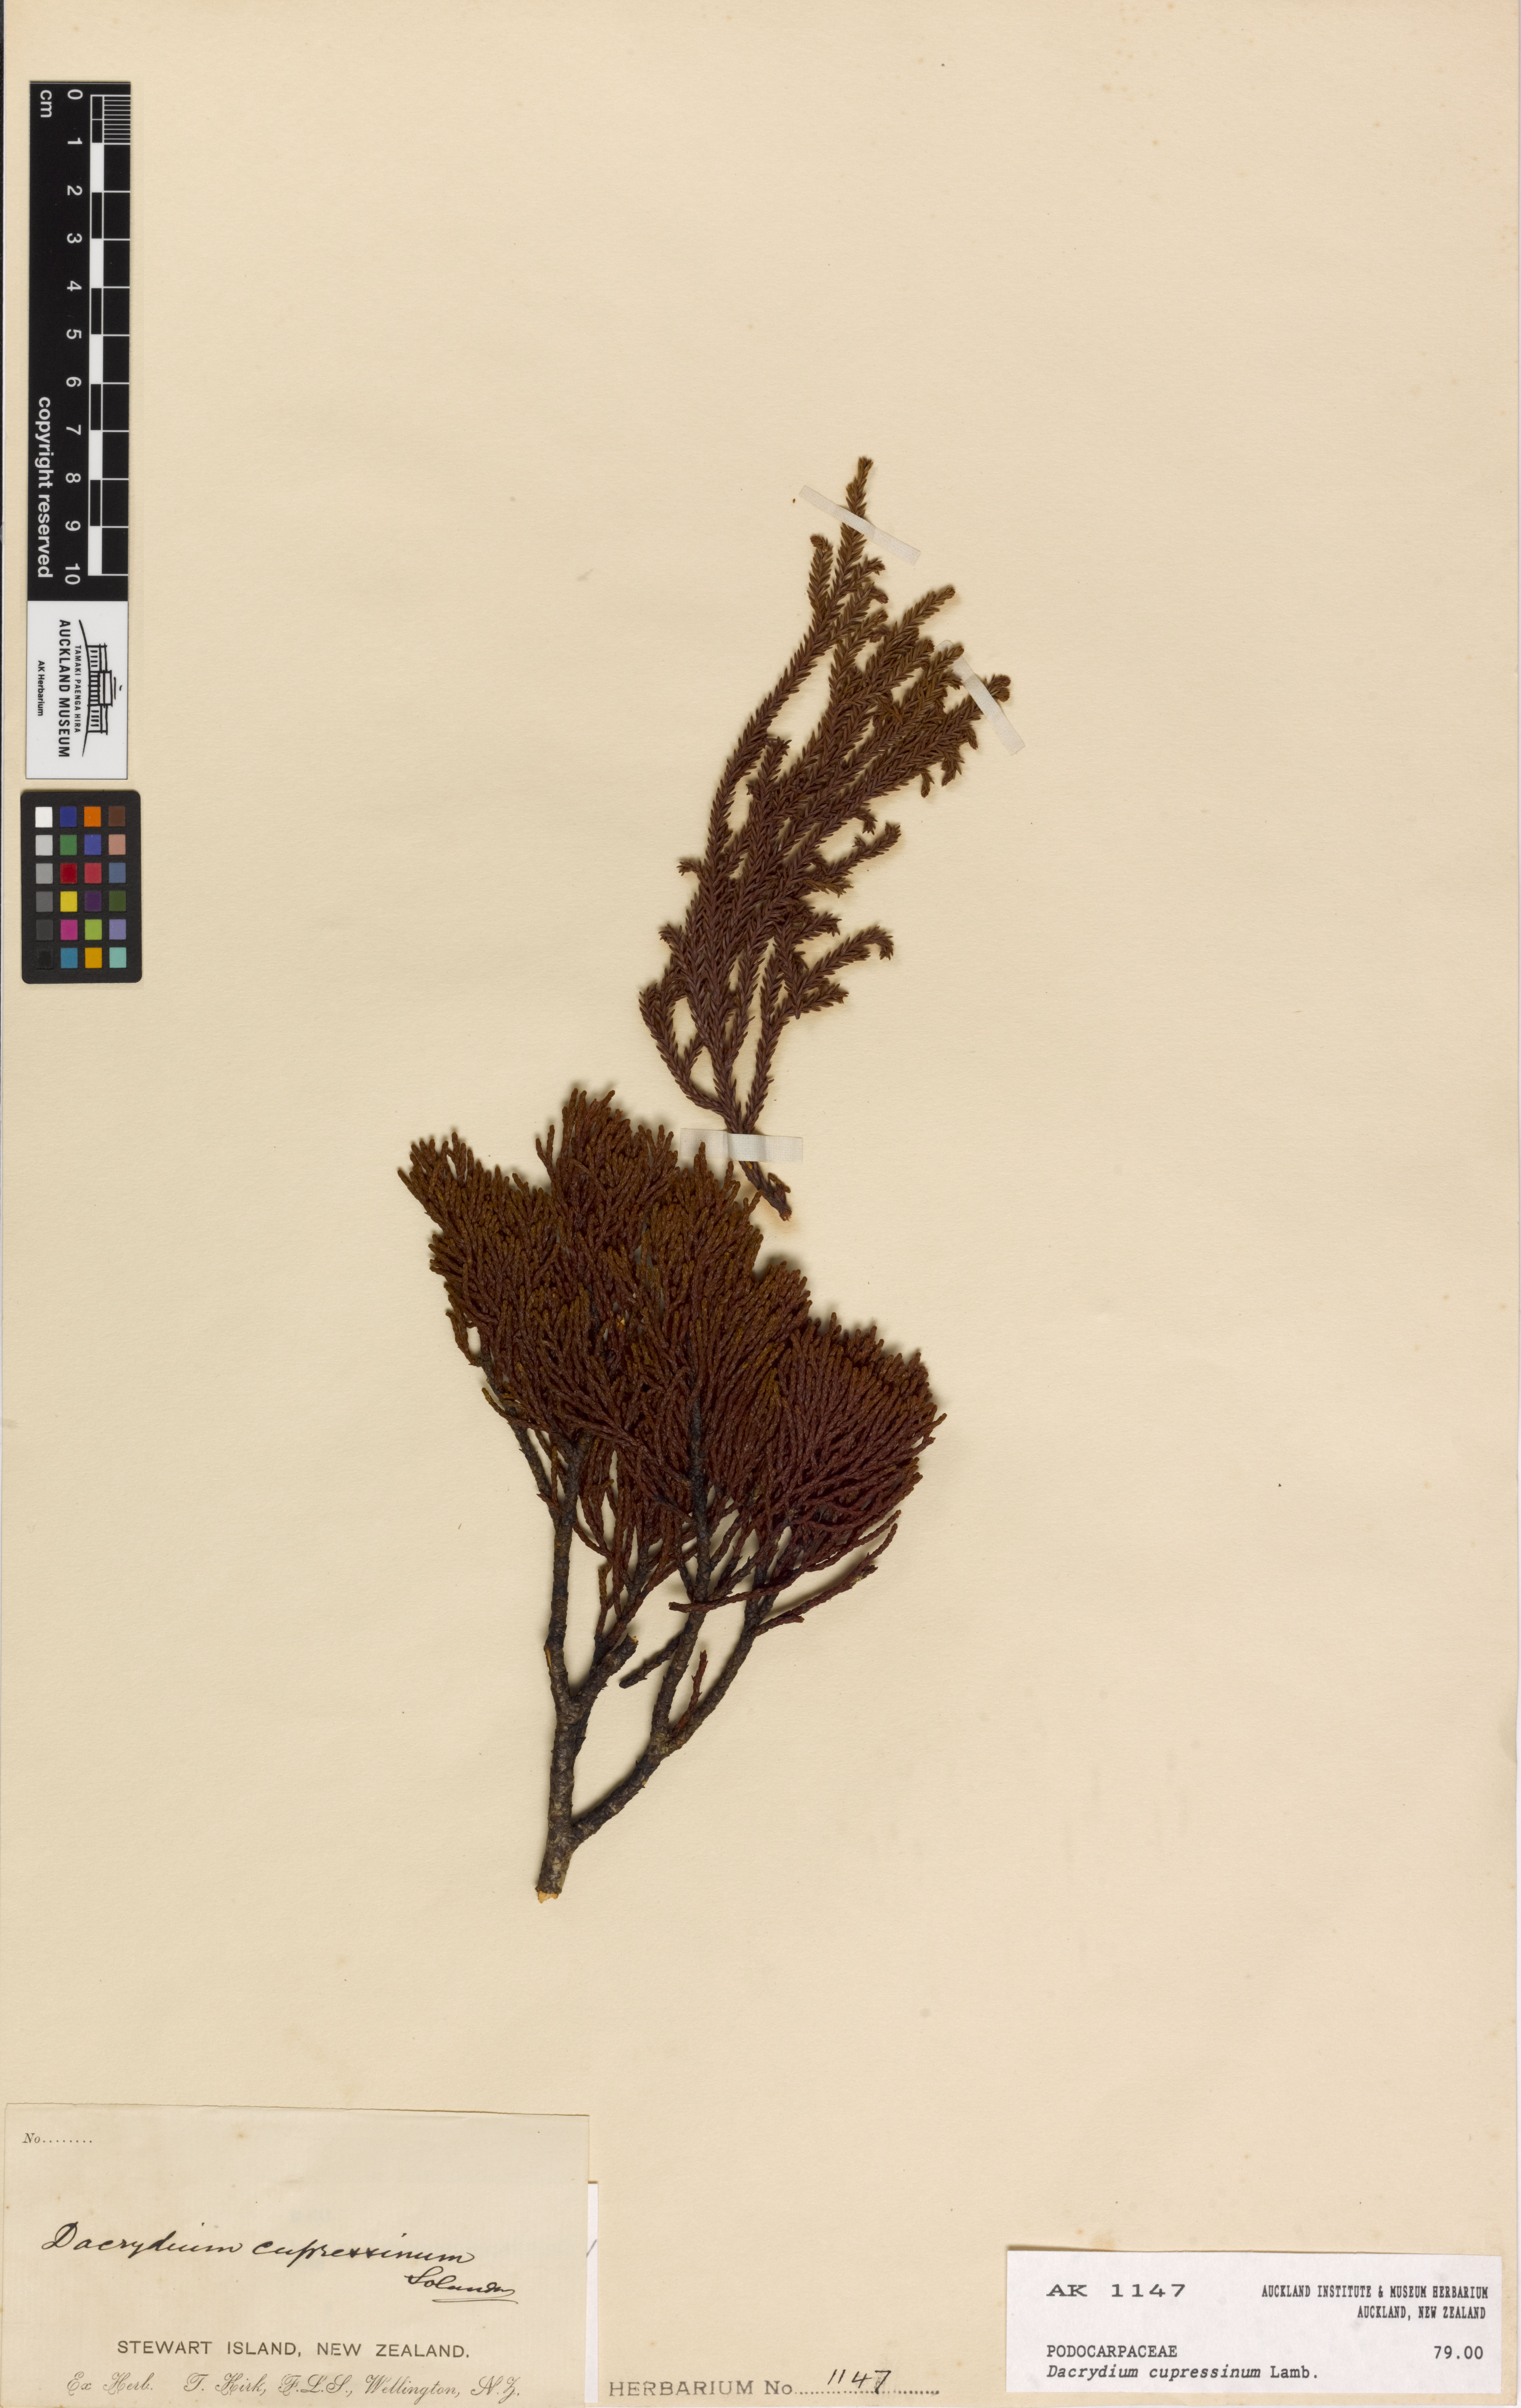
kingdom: Plantae
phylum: Tracheophyta
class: Pinopsida
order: Pinales
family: Podocarpaceae
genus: Dacrydium
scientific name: Dacrydium cupressinum
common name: Red pine
